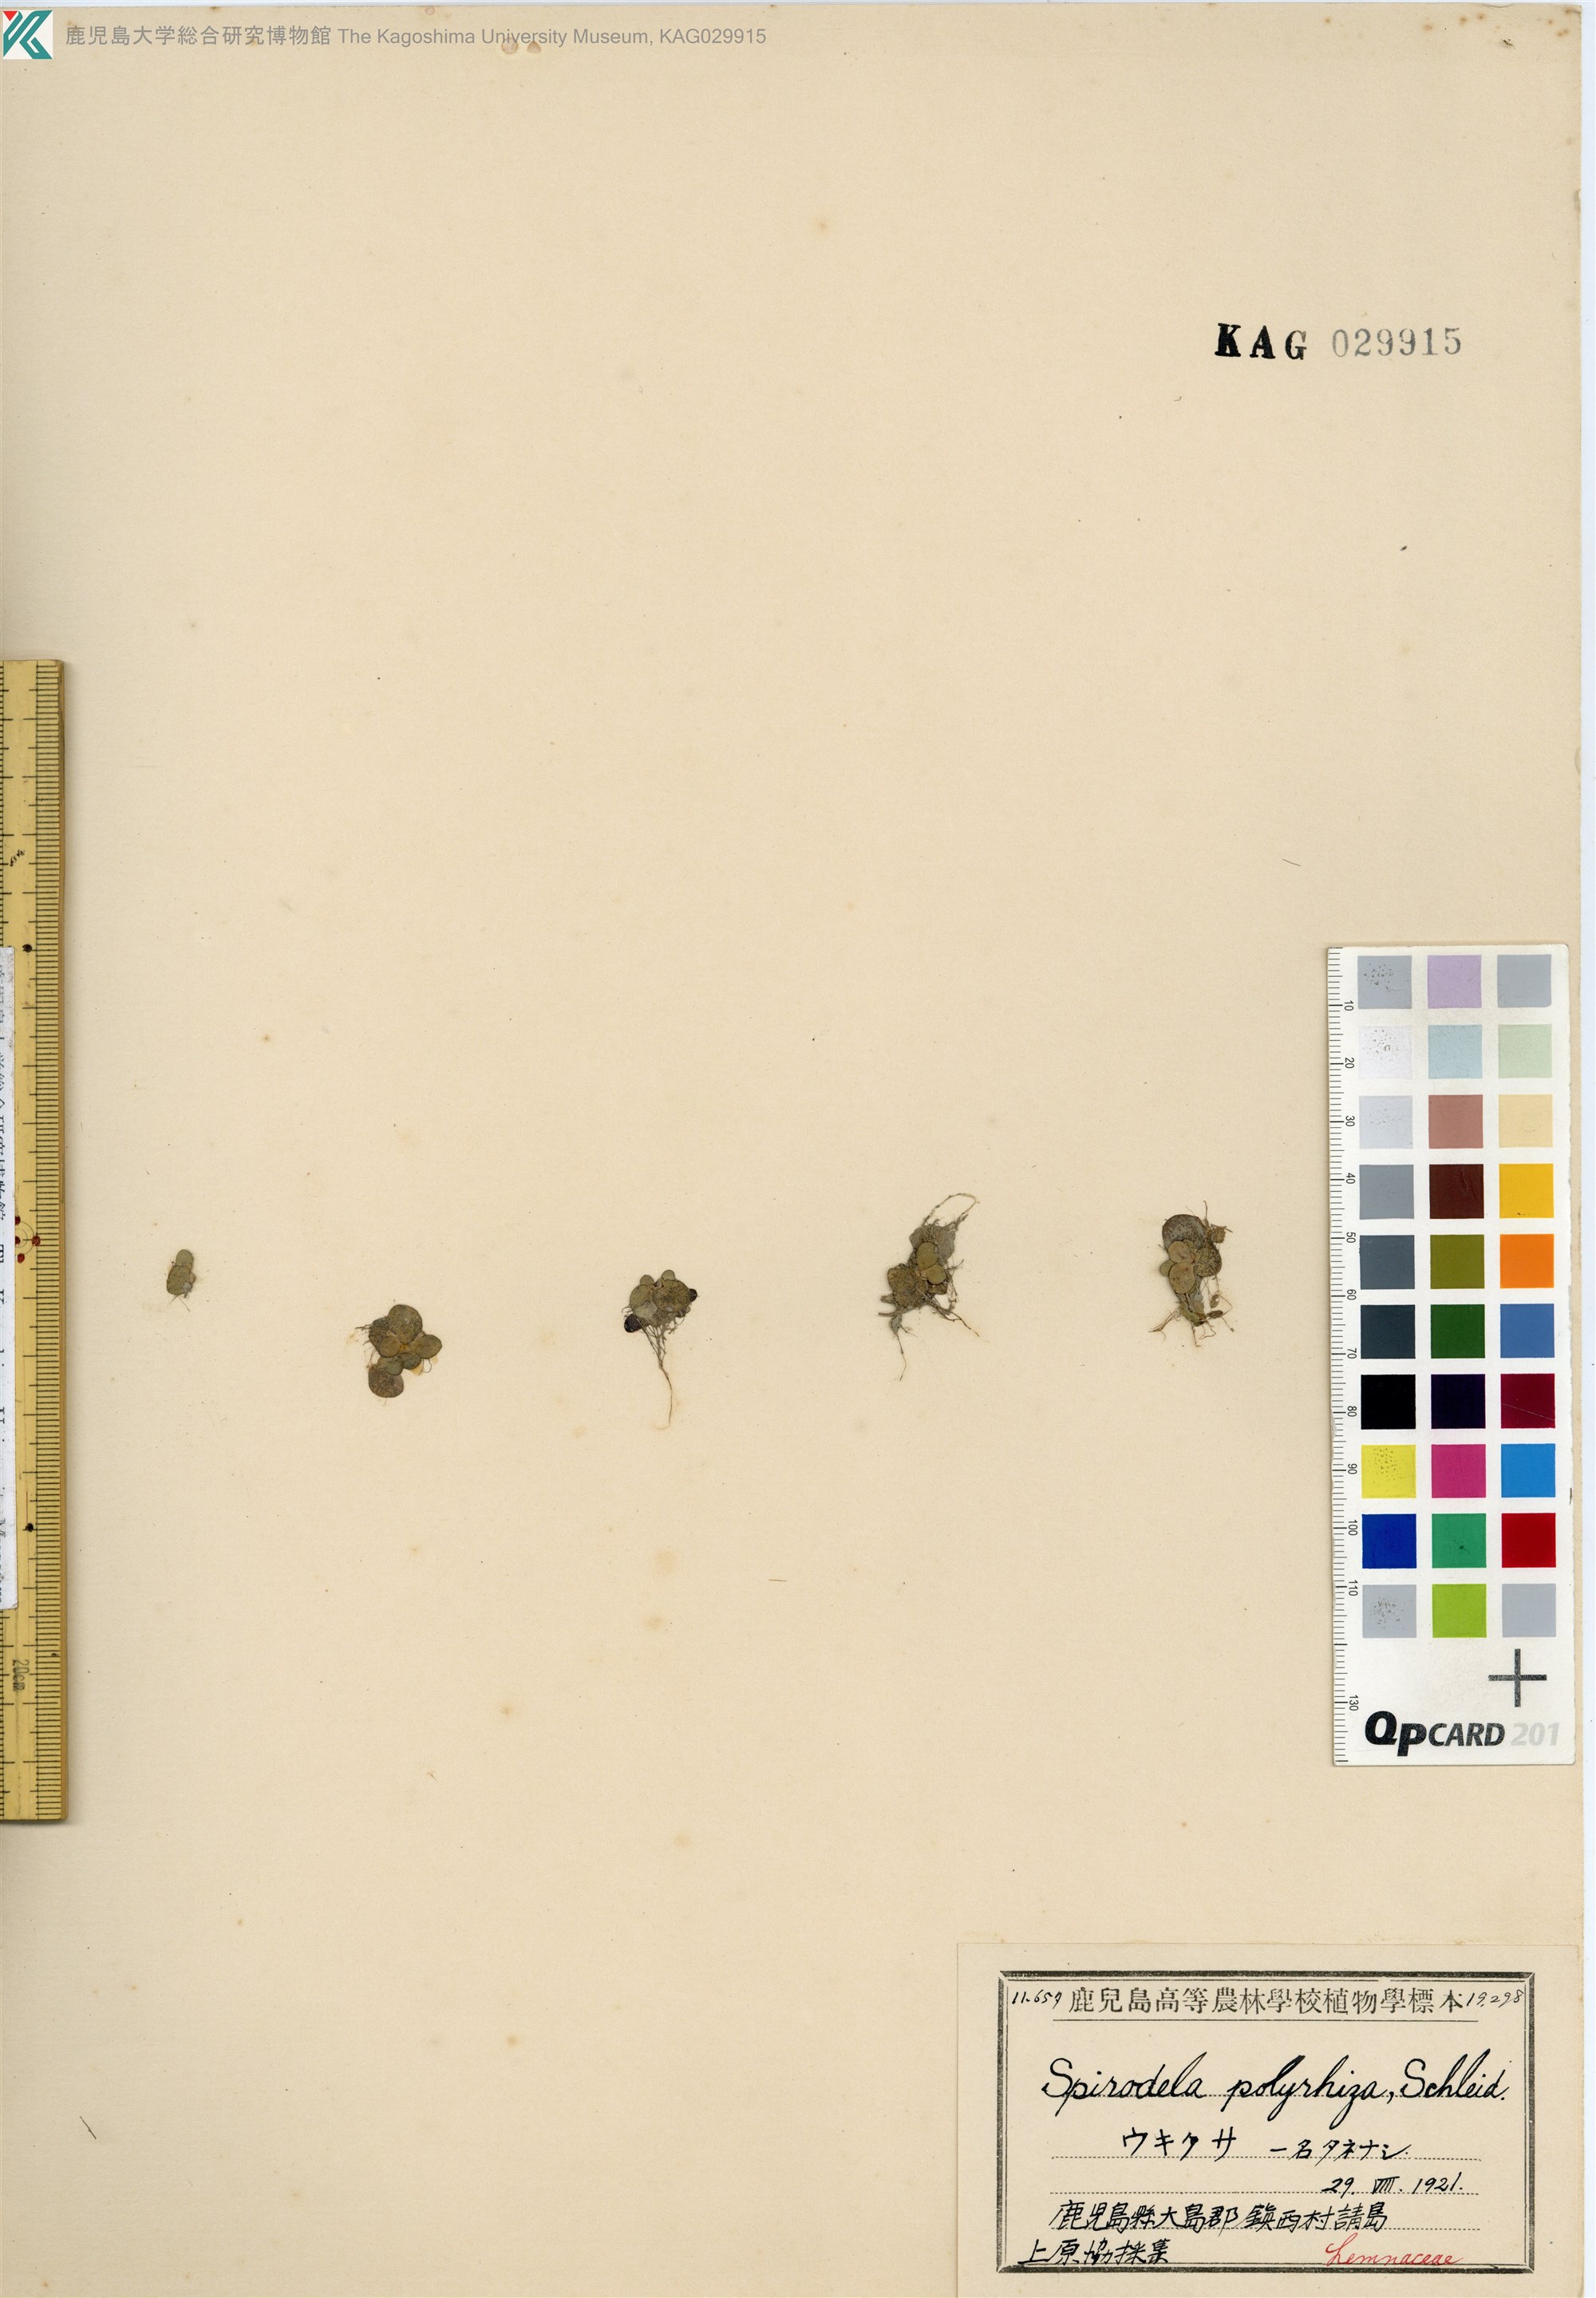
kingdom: Plantae
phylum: Tracheophyta
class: Liliopsida
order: Alismatales
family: Araceae
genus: Spirodela
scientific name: Spirodela polyrhiza
